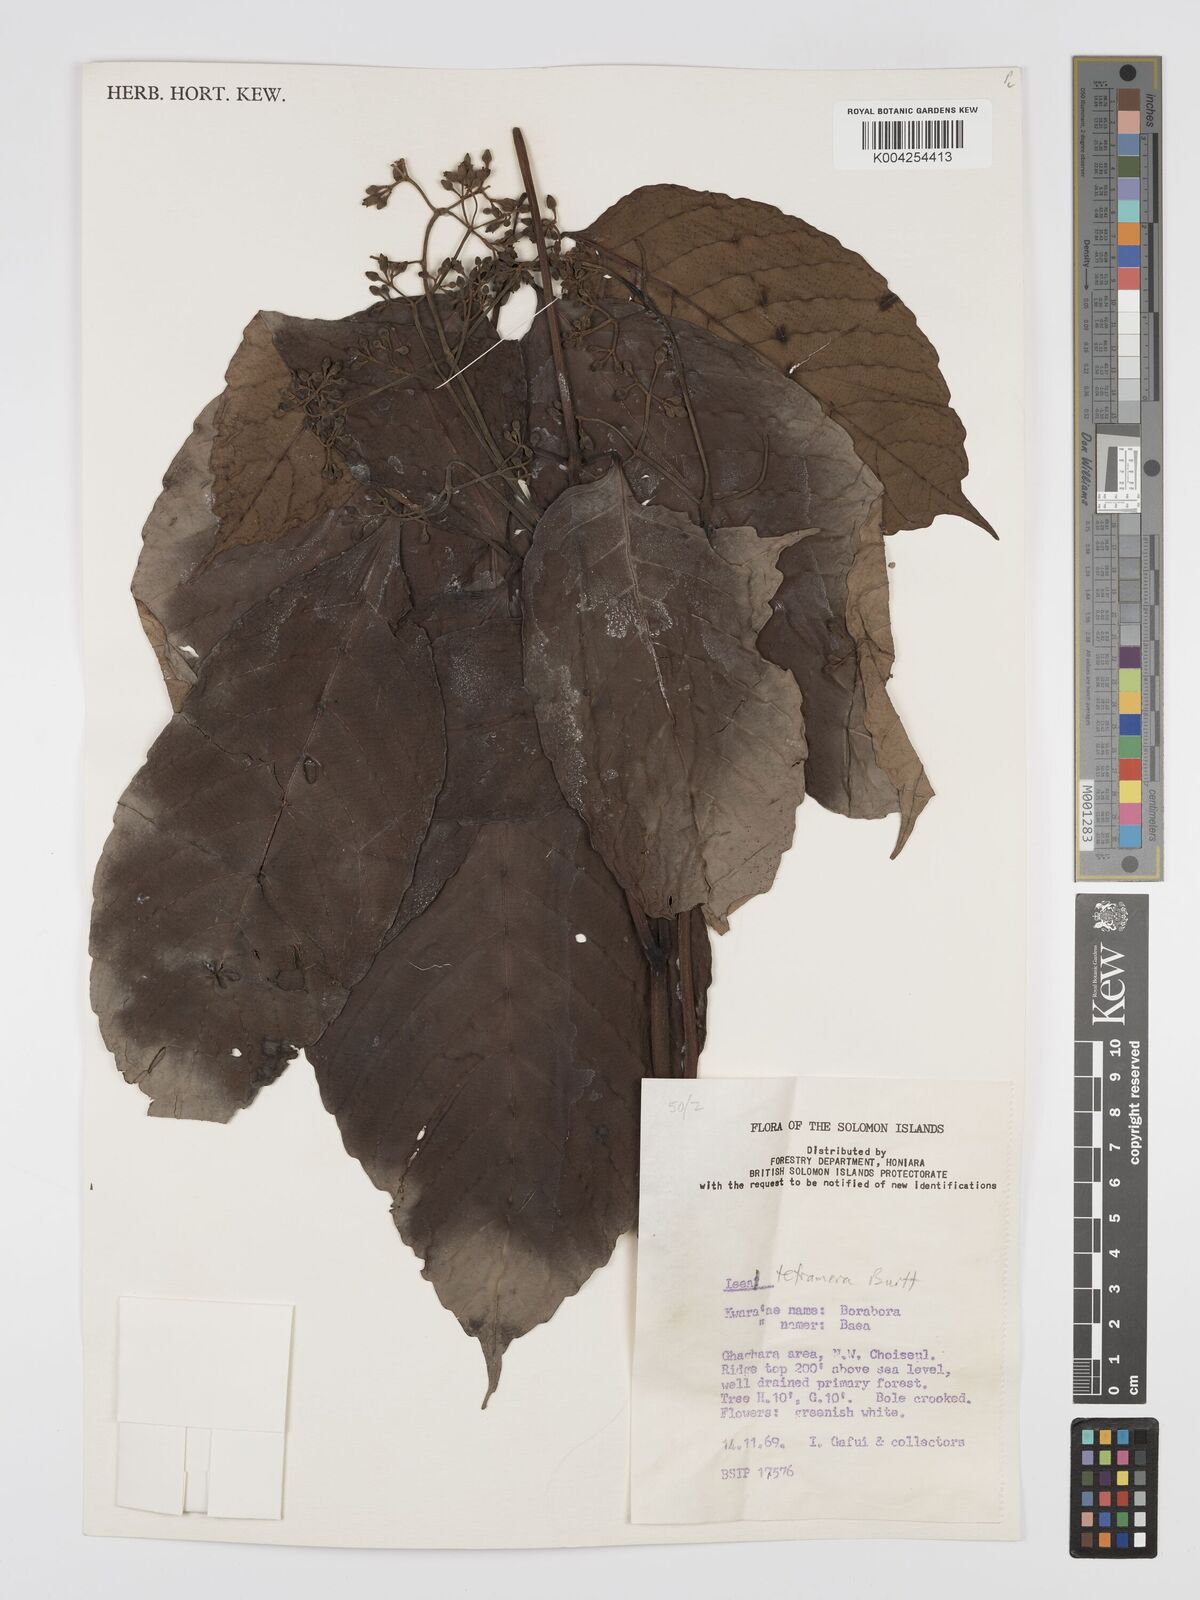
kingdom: Plantae
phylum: Tracheophyta
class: Magnoliopsida
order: Vitales
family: Vitaceae
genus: Leea
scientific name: Leea tetramera
